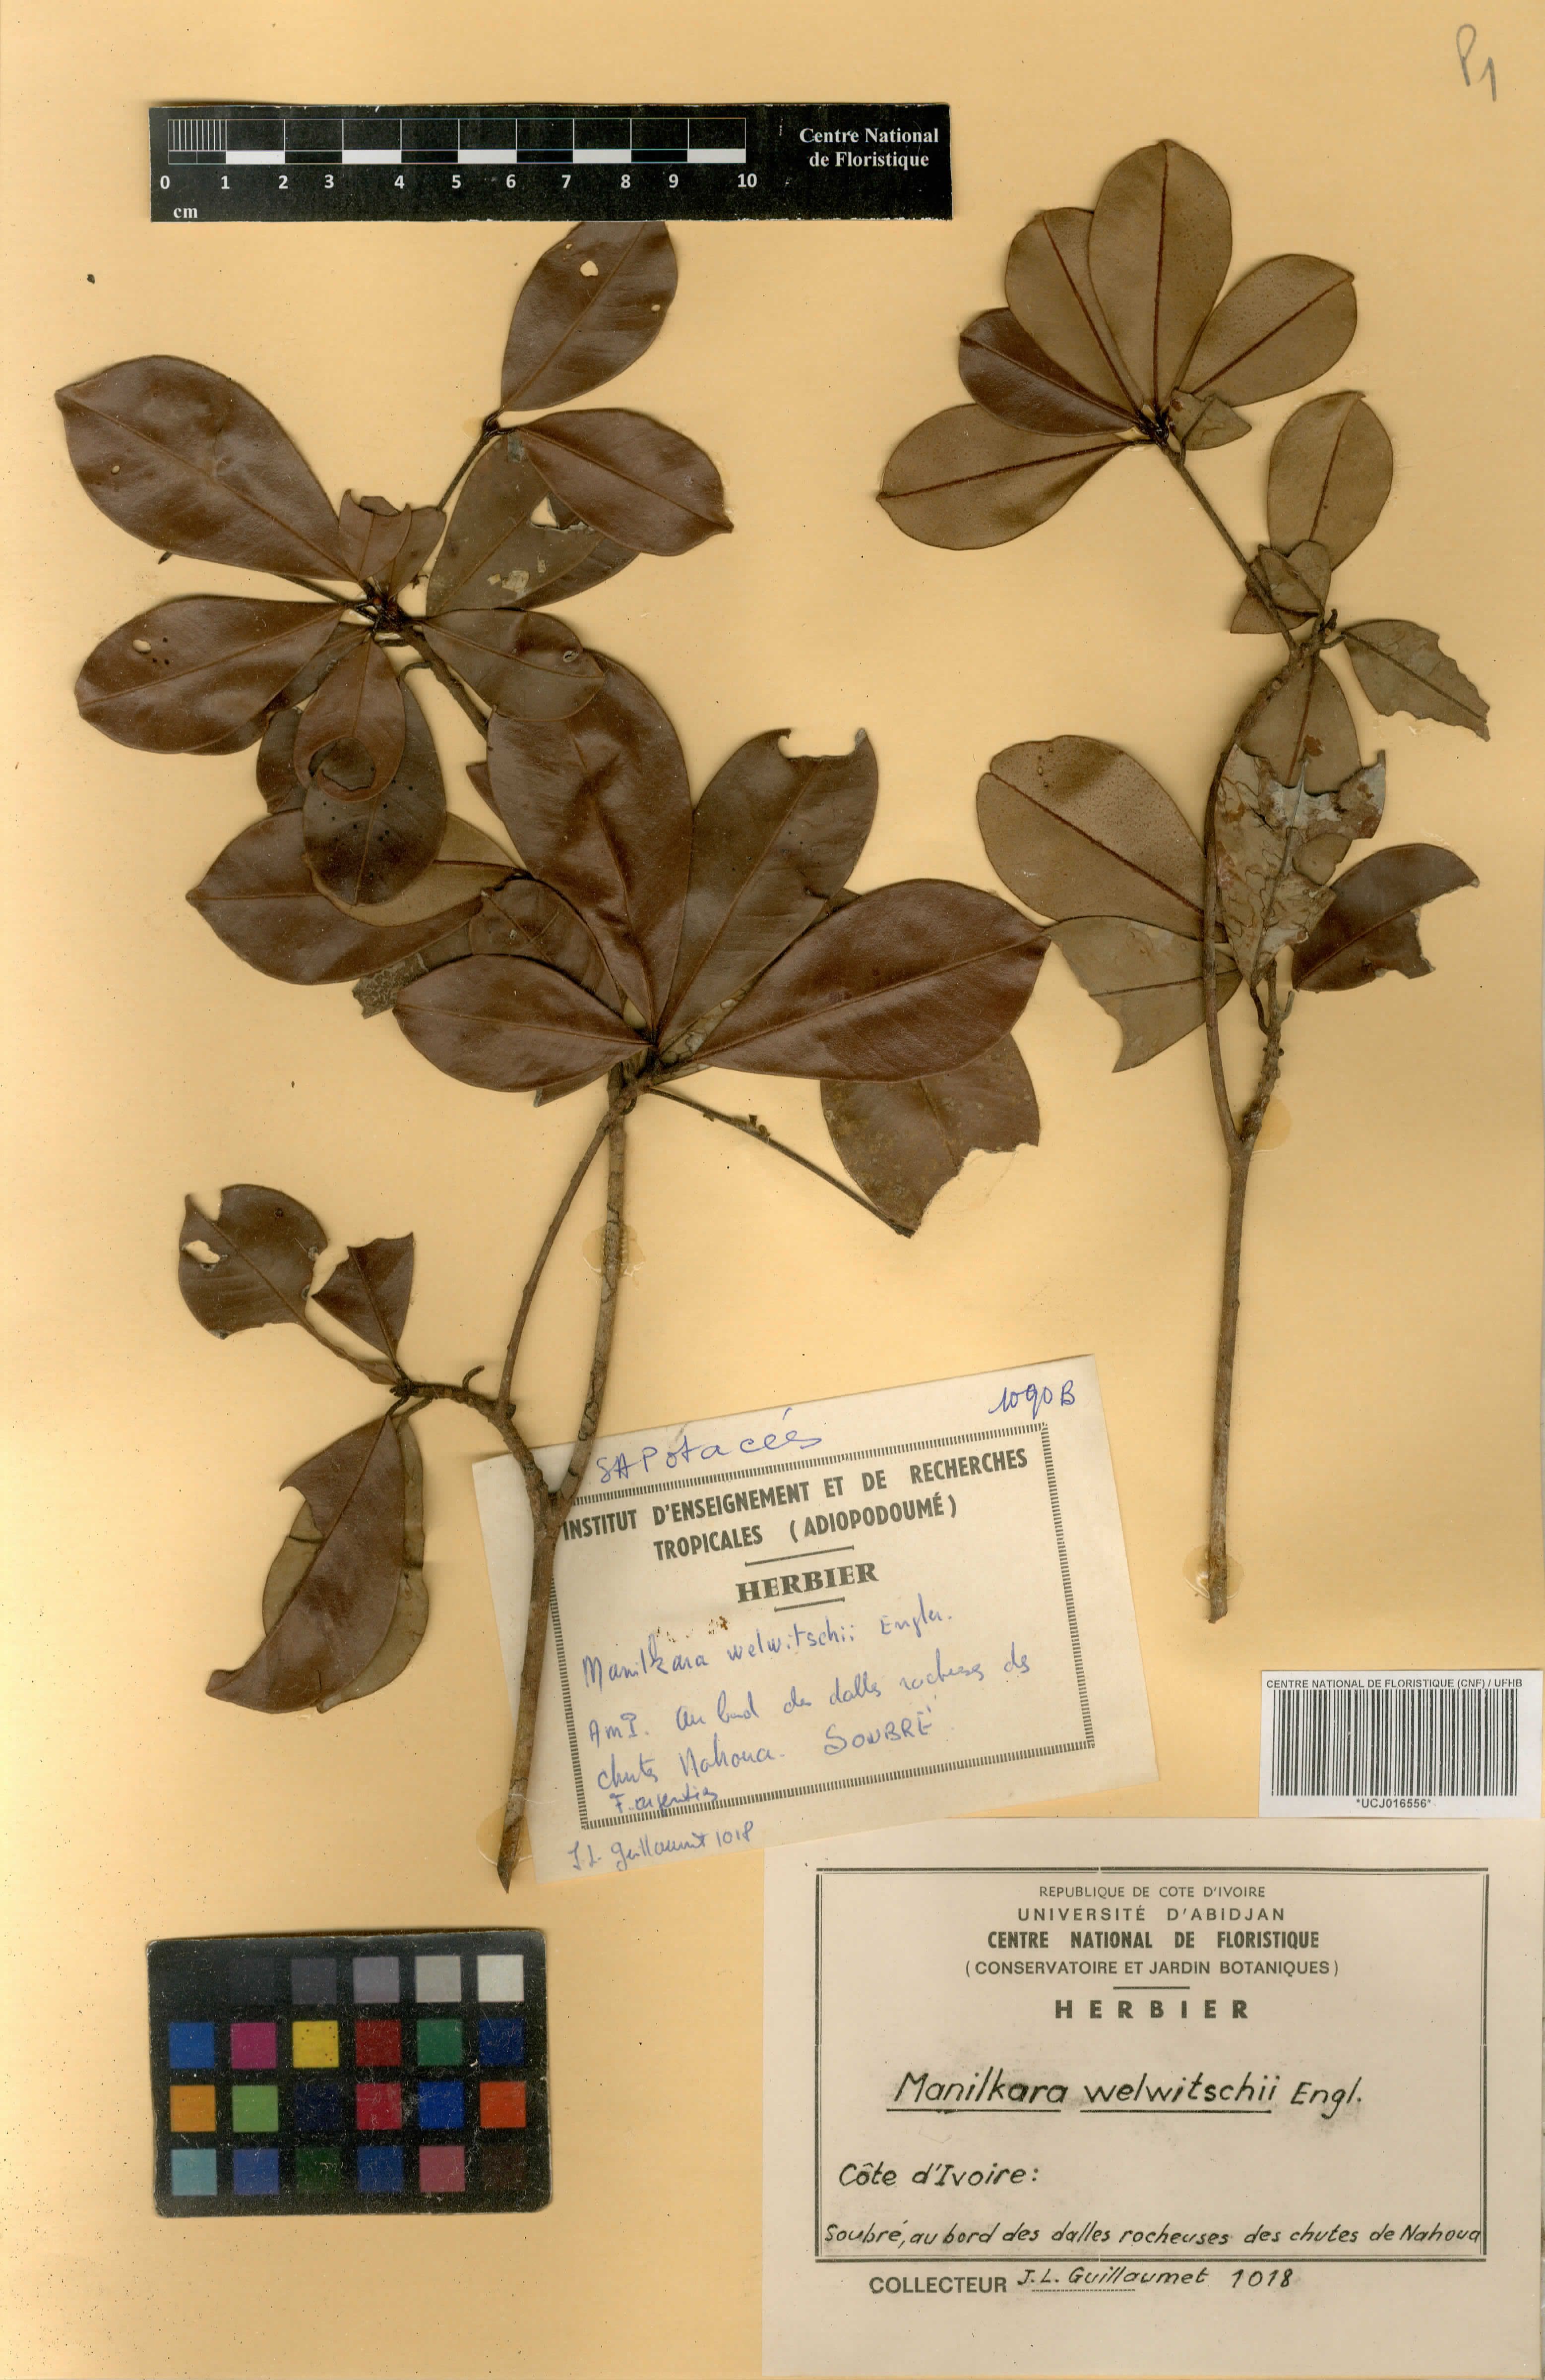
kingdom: Plantae
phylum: Tracheophyta
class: Magnoliopsida
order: Ericales
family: Sapotaceae
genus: Manilkara
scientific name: Manilkara obovata
